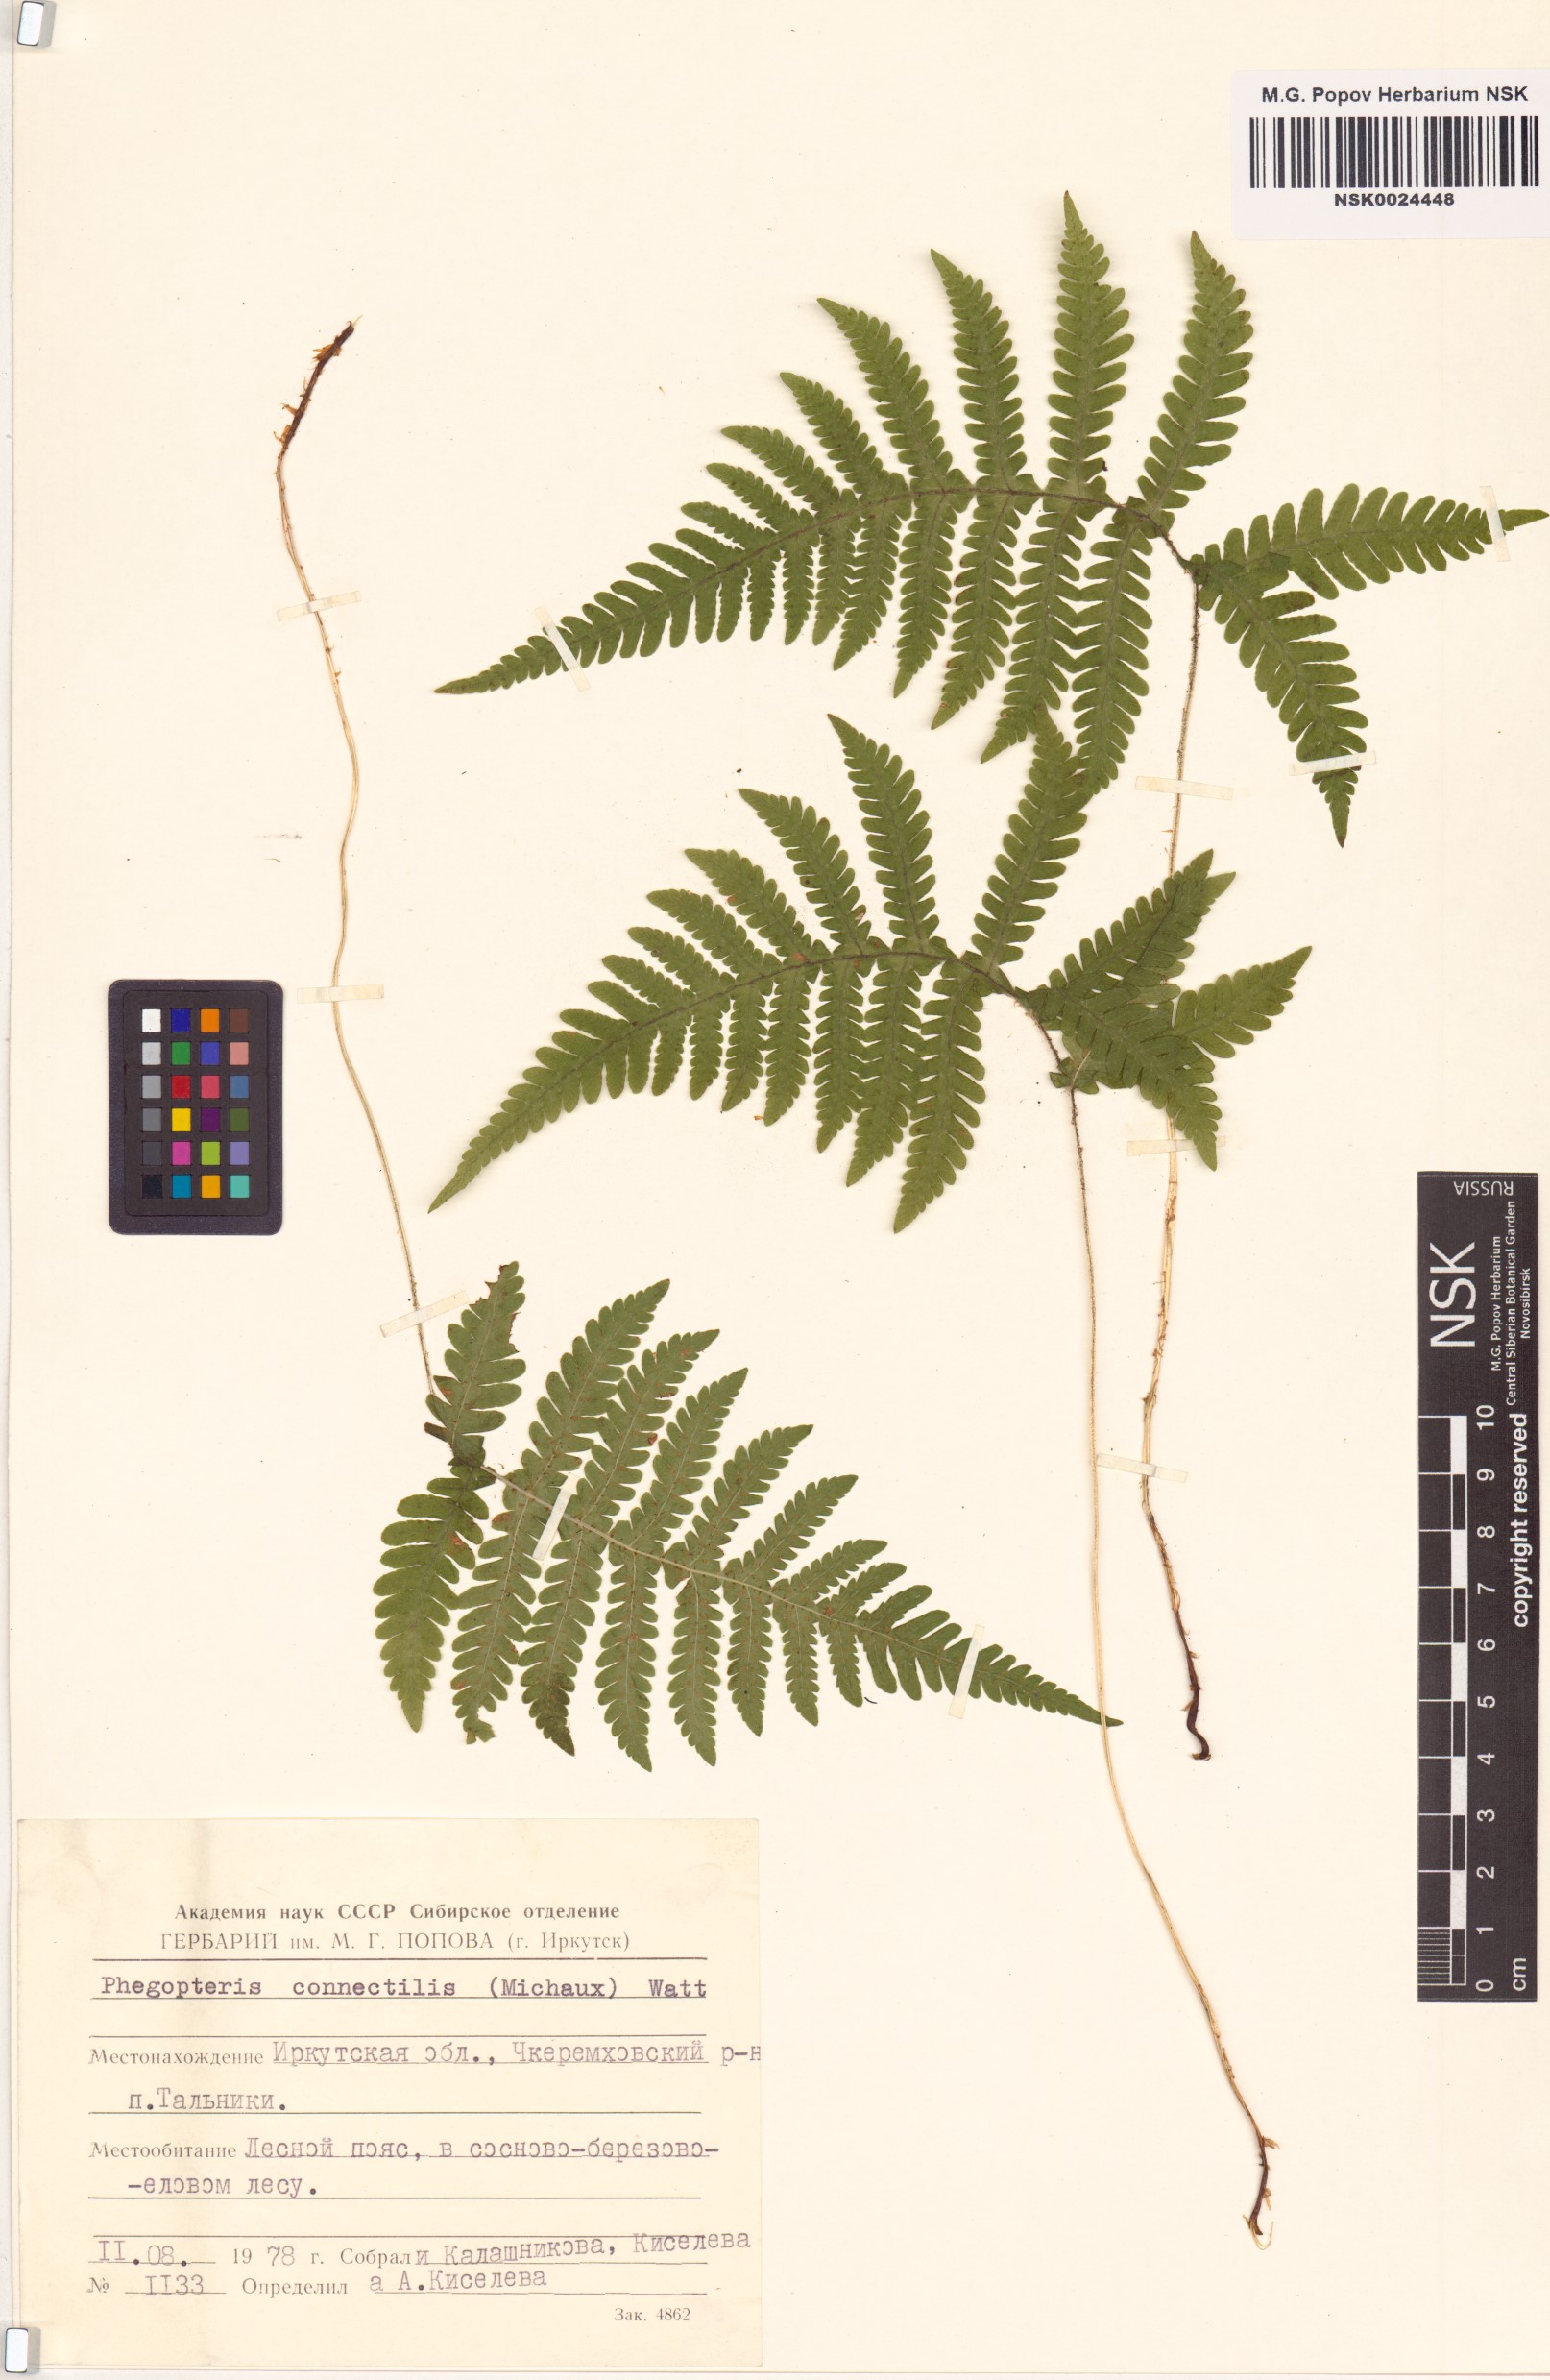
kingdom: Plantae
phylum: Tracheophyta
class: Polypodiopsida
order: Polypodiales
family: Thelypteridaceae
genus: Phegopteris
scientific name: Phegopteris connectilis
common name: Beech fern
